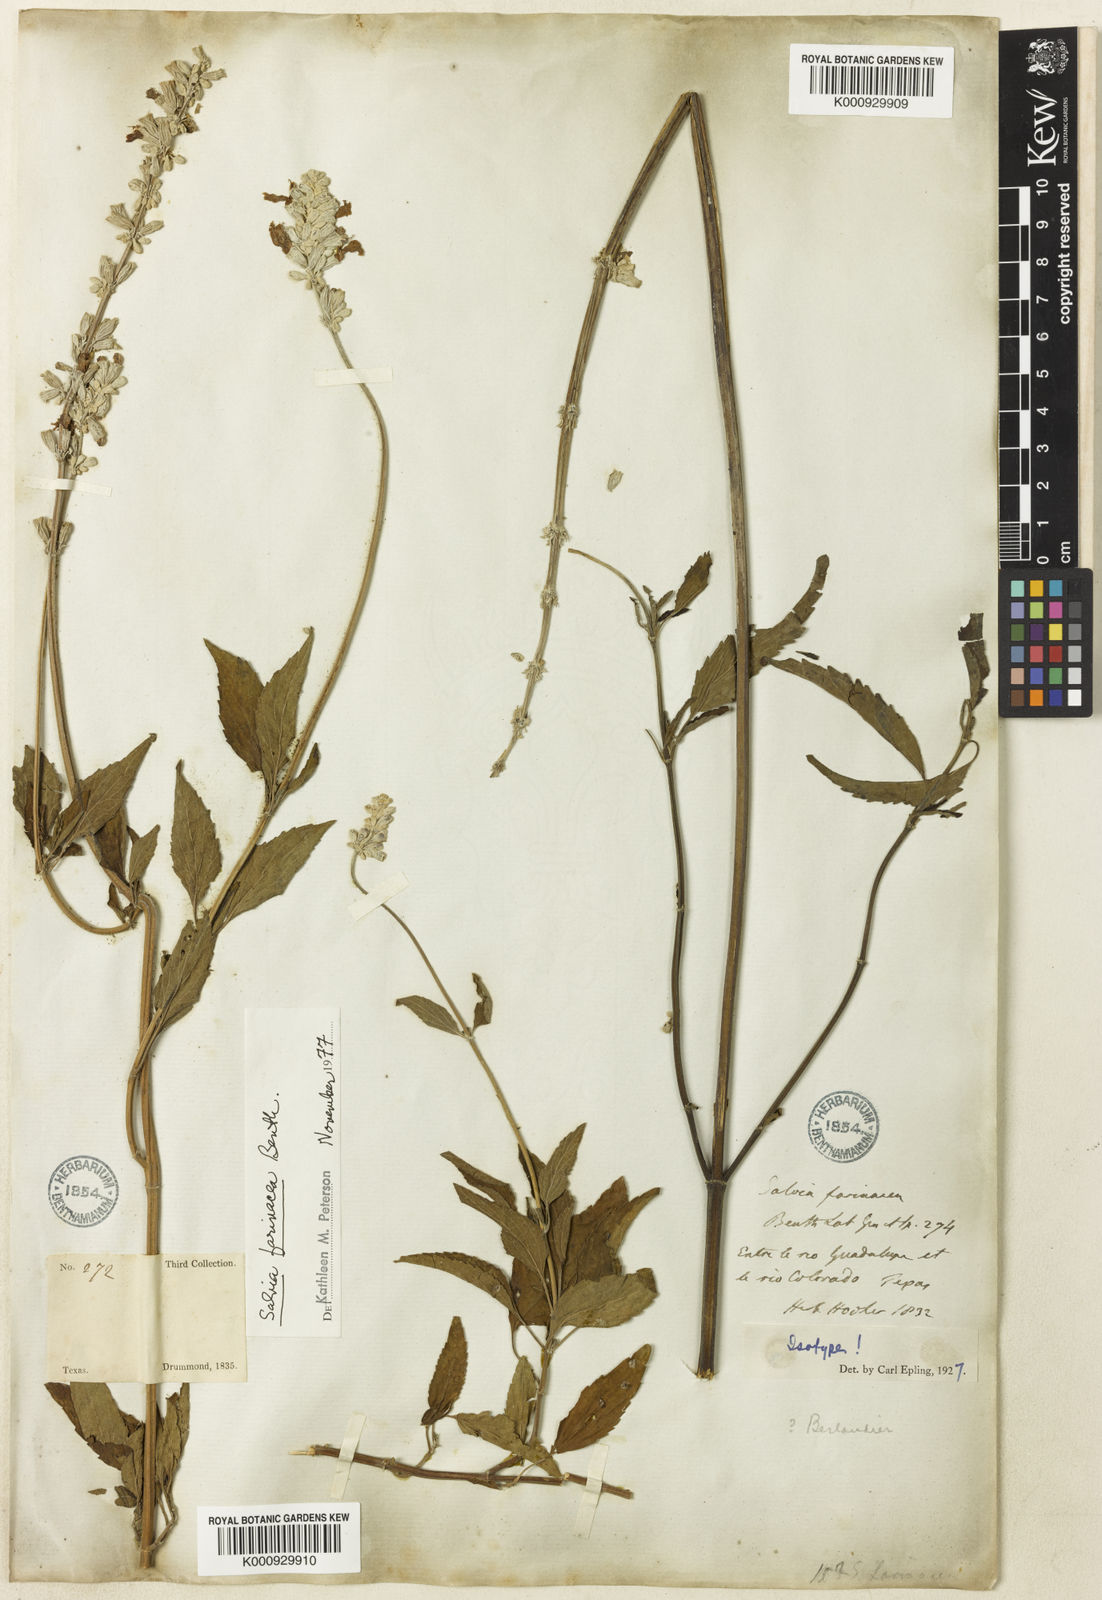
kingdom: Plantae
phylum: Tracheophyta
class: Magnoliopsida
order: Lamiales
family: Lamiaceae
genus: Salvia
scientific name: Salvia farinacea
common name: Mealy sage
